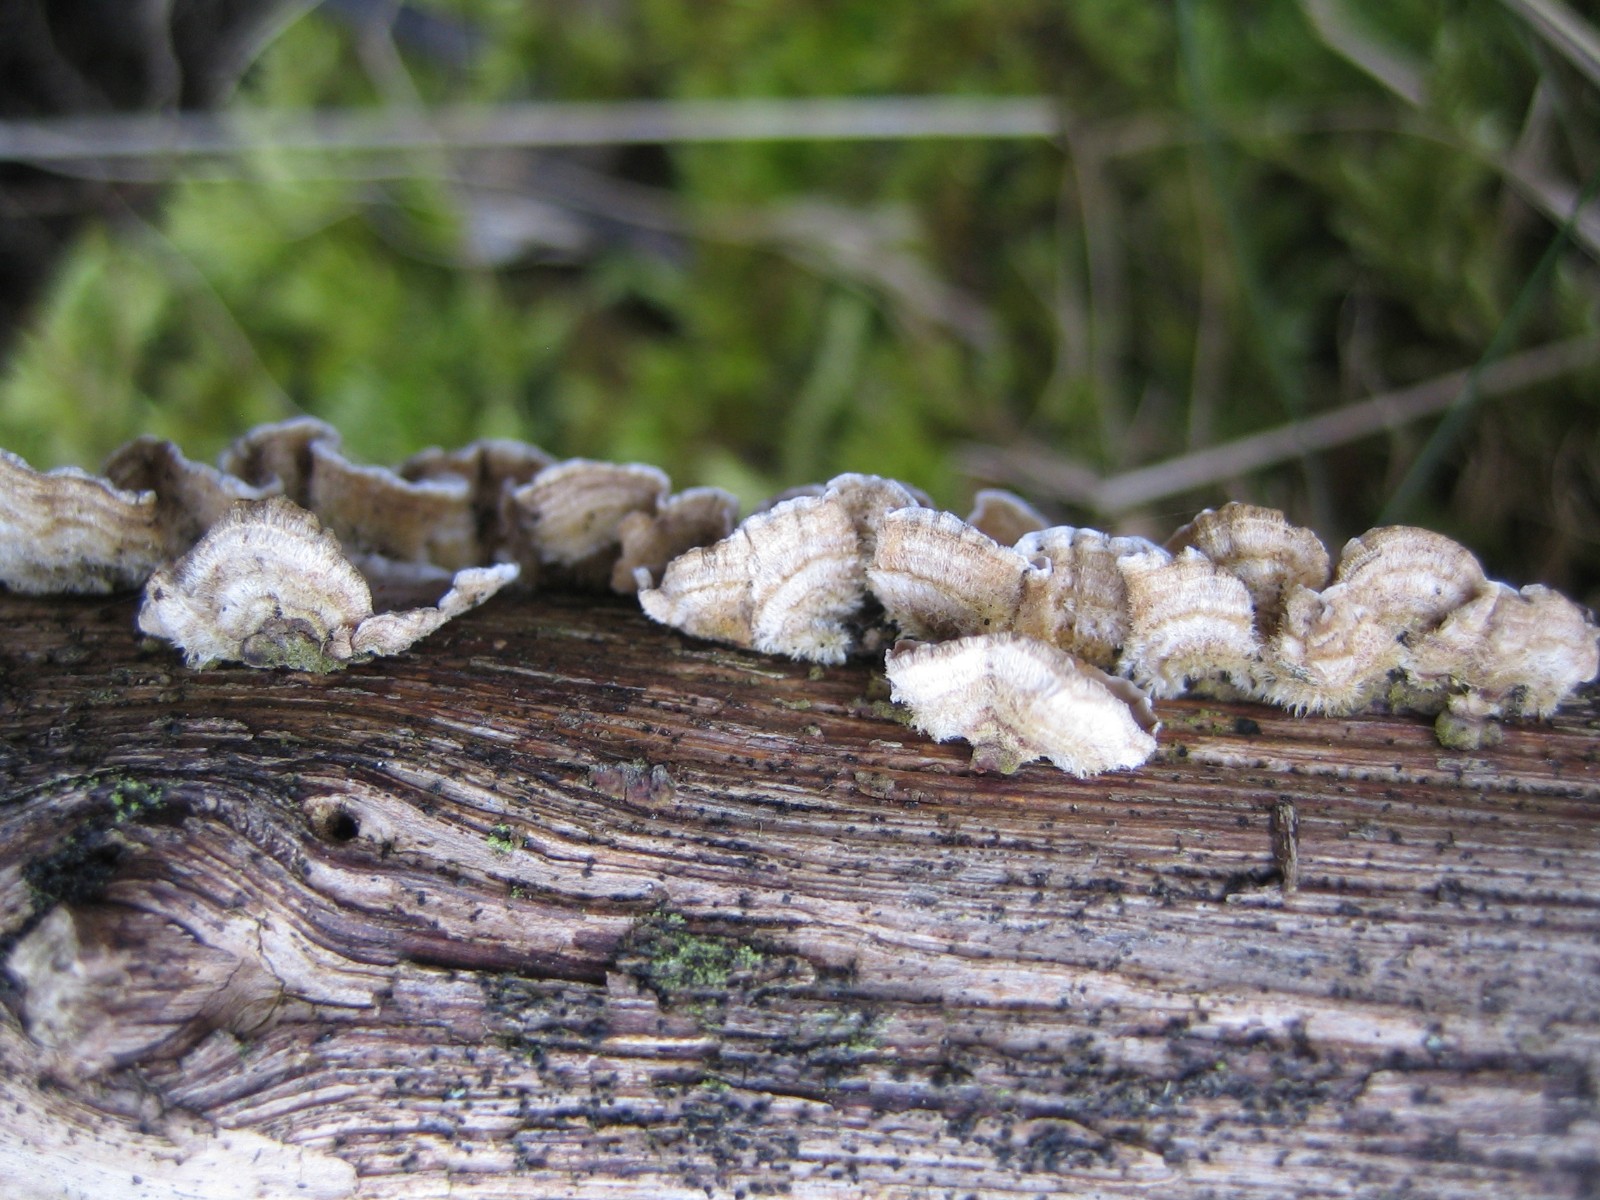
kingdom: Fungi
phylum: Basidiomycota
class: Agaricomycetes
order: Russulales
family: Stereaceae
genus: Stereum
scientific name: Stereum hirsutum
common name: håret lædersvamp
